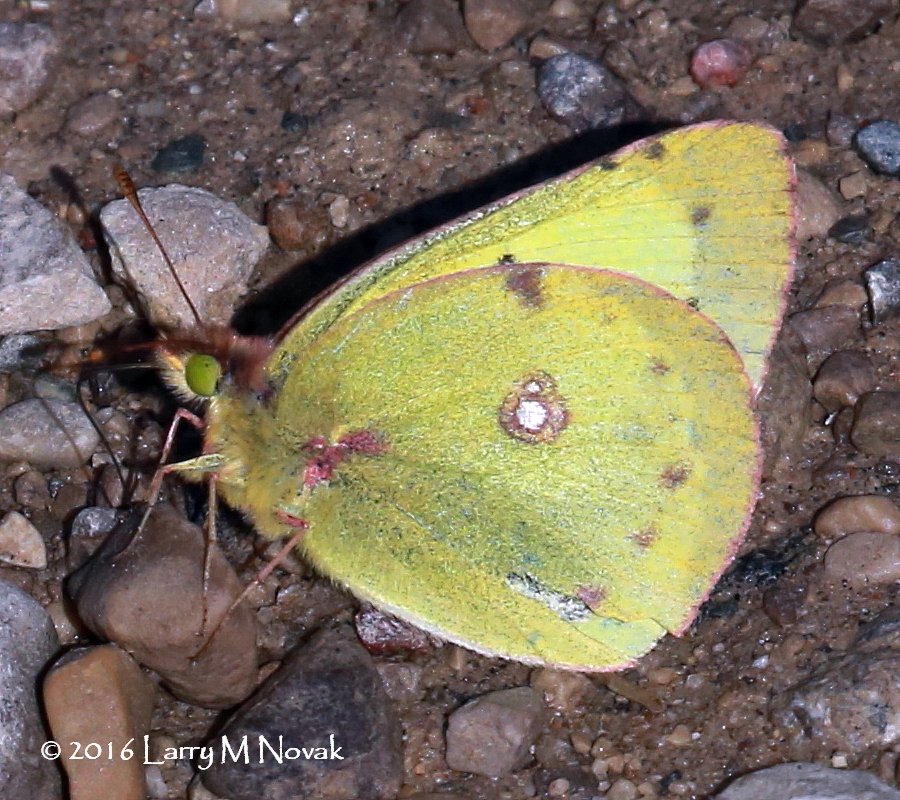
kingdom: Animalia
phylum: Arthropoda
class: Insecta
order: Lepidoptera
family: Pieridae
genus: Colias
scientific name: Colias philodice
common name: Clouded Sulphur
